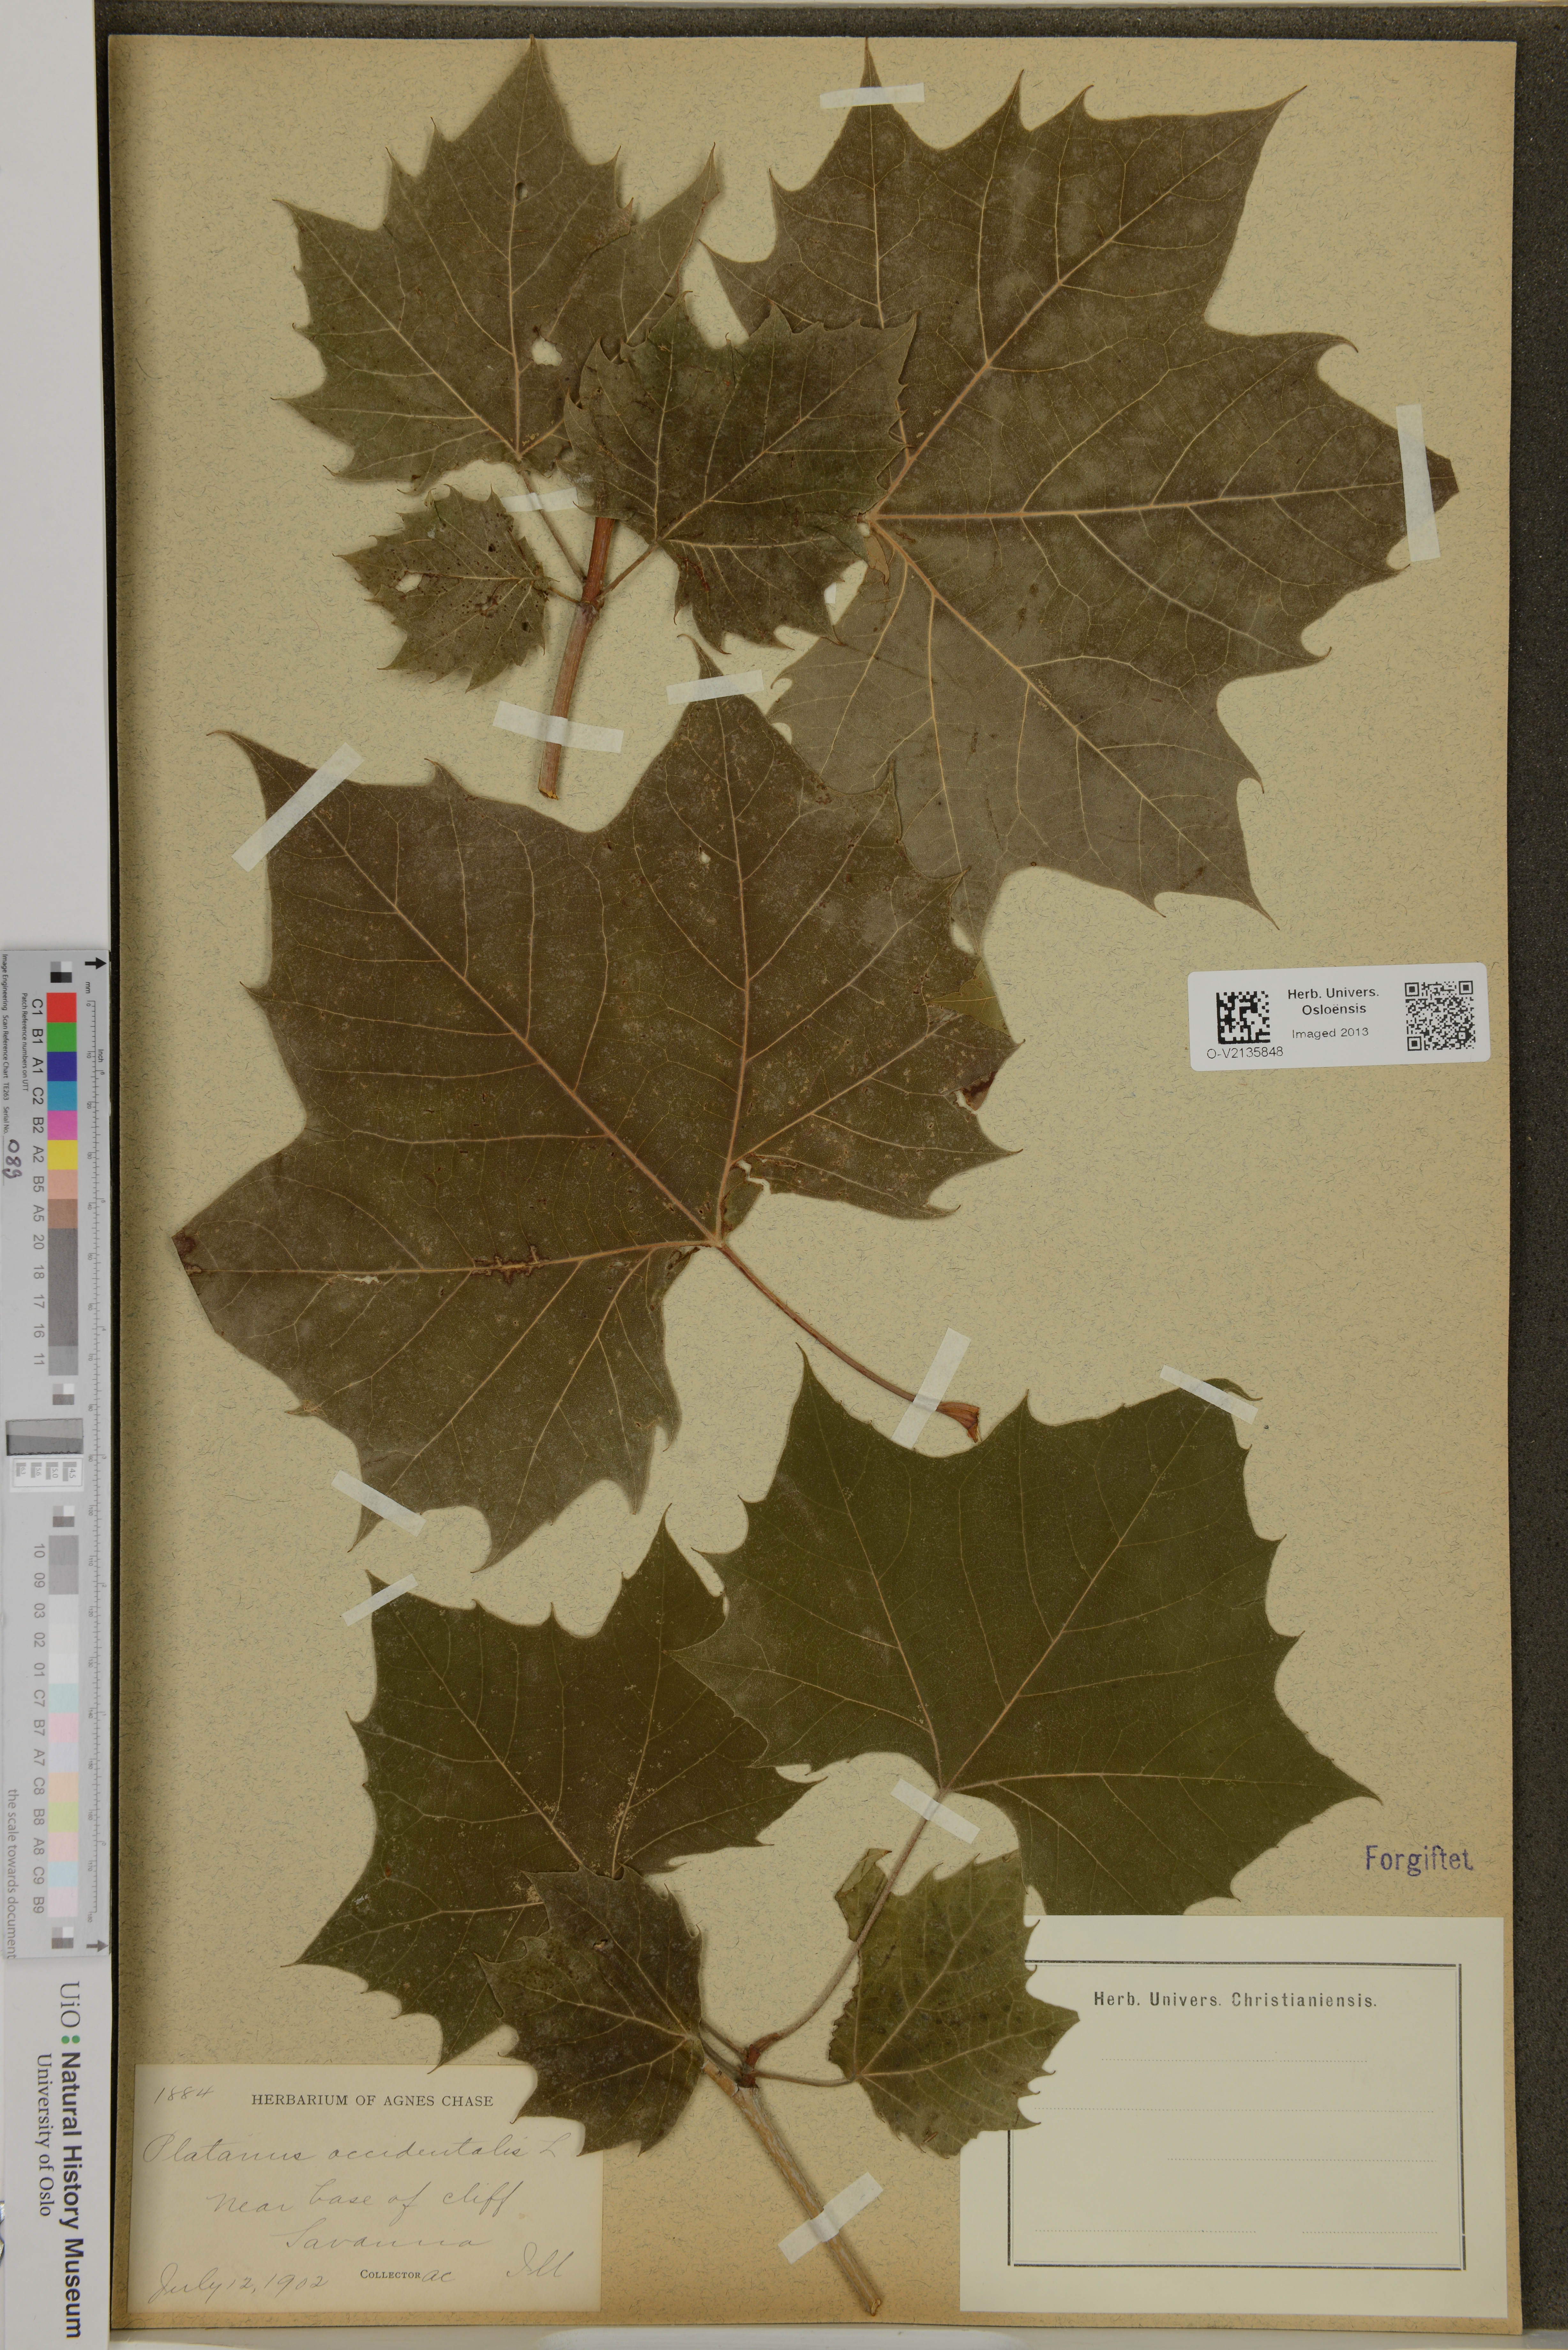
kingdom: Plantae
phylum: Tracheophyta
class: Magnoliopsida
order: Proteales
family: Platanaceae
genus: Platanus
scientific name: Platanus occidentalis
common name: American sycamore
